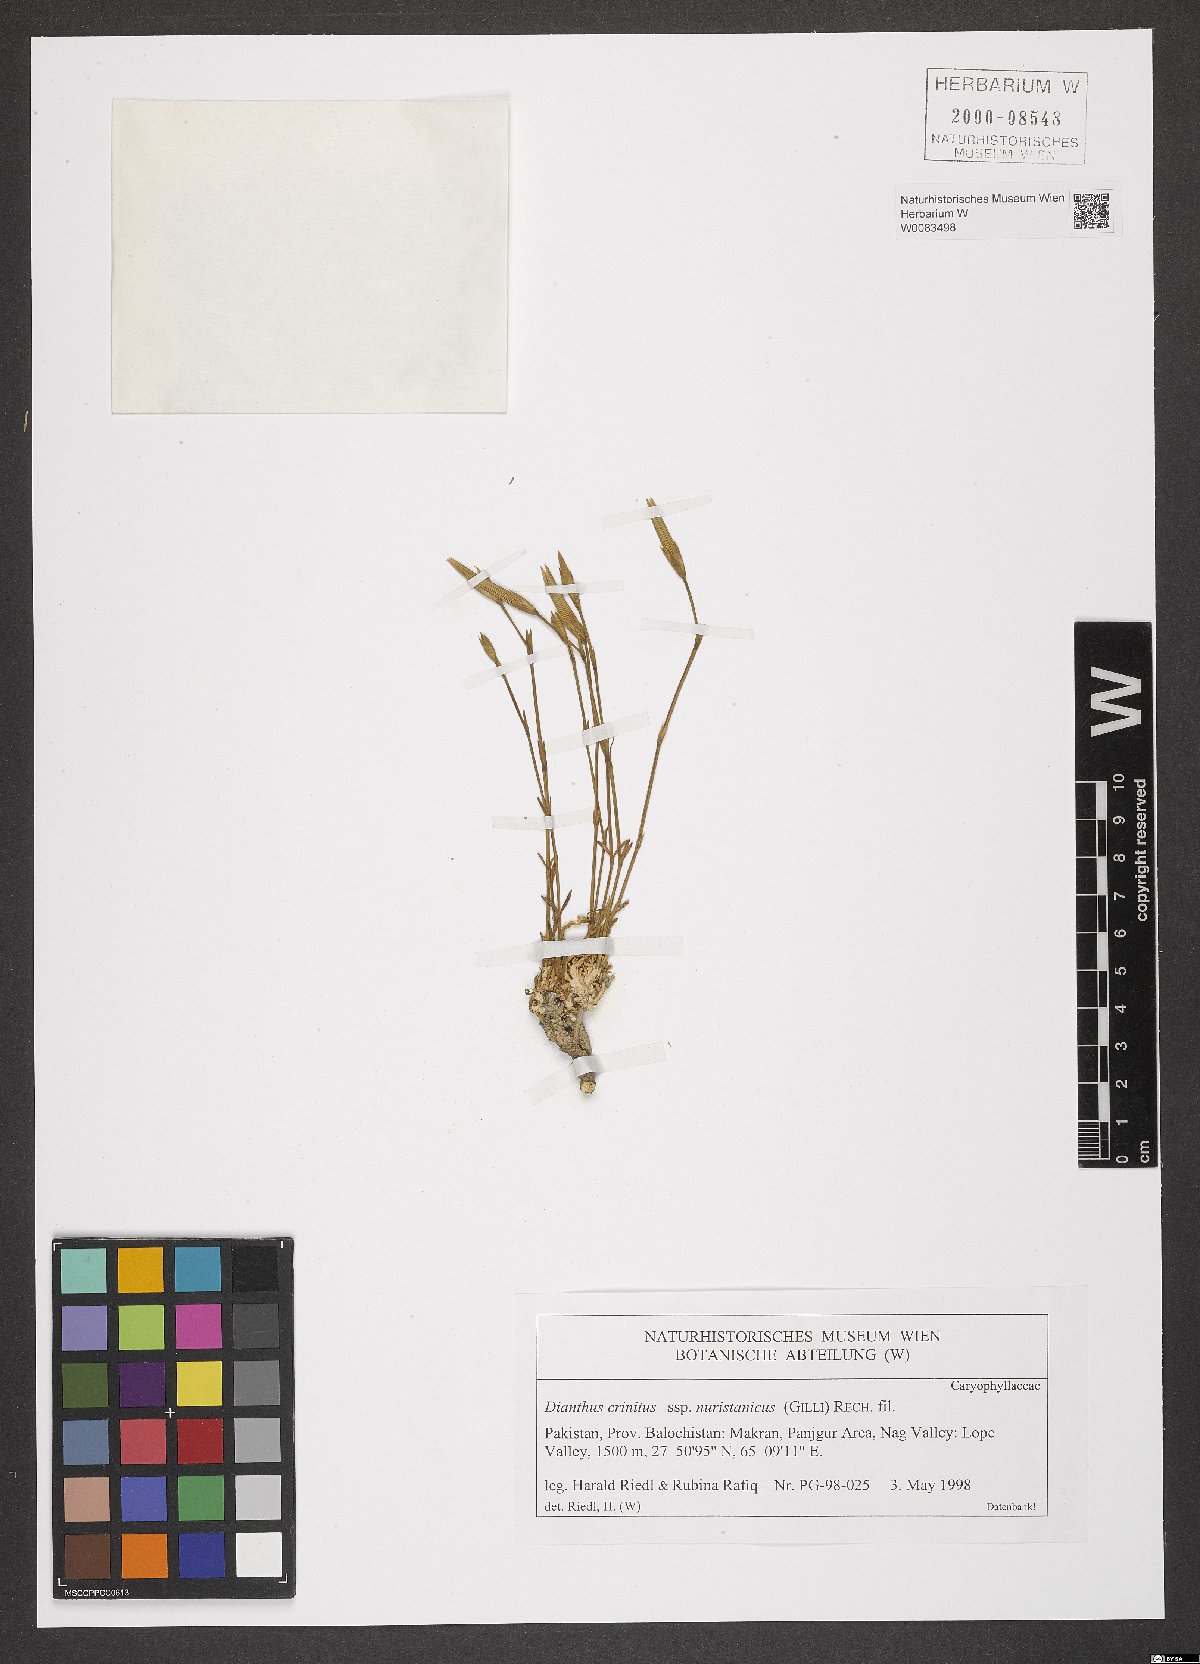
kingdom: Plantae
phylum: Tracheophyta
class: Magnoliopsida
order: Caryophyllales
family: Caryophyllaceae
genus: Dianthus
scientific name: Dianthus crinitus
